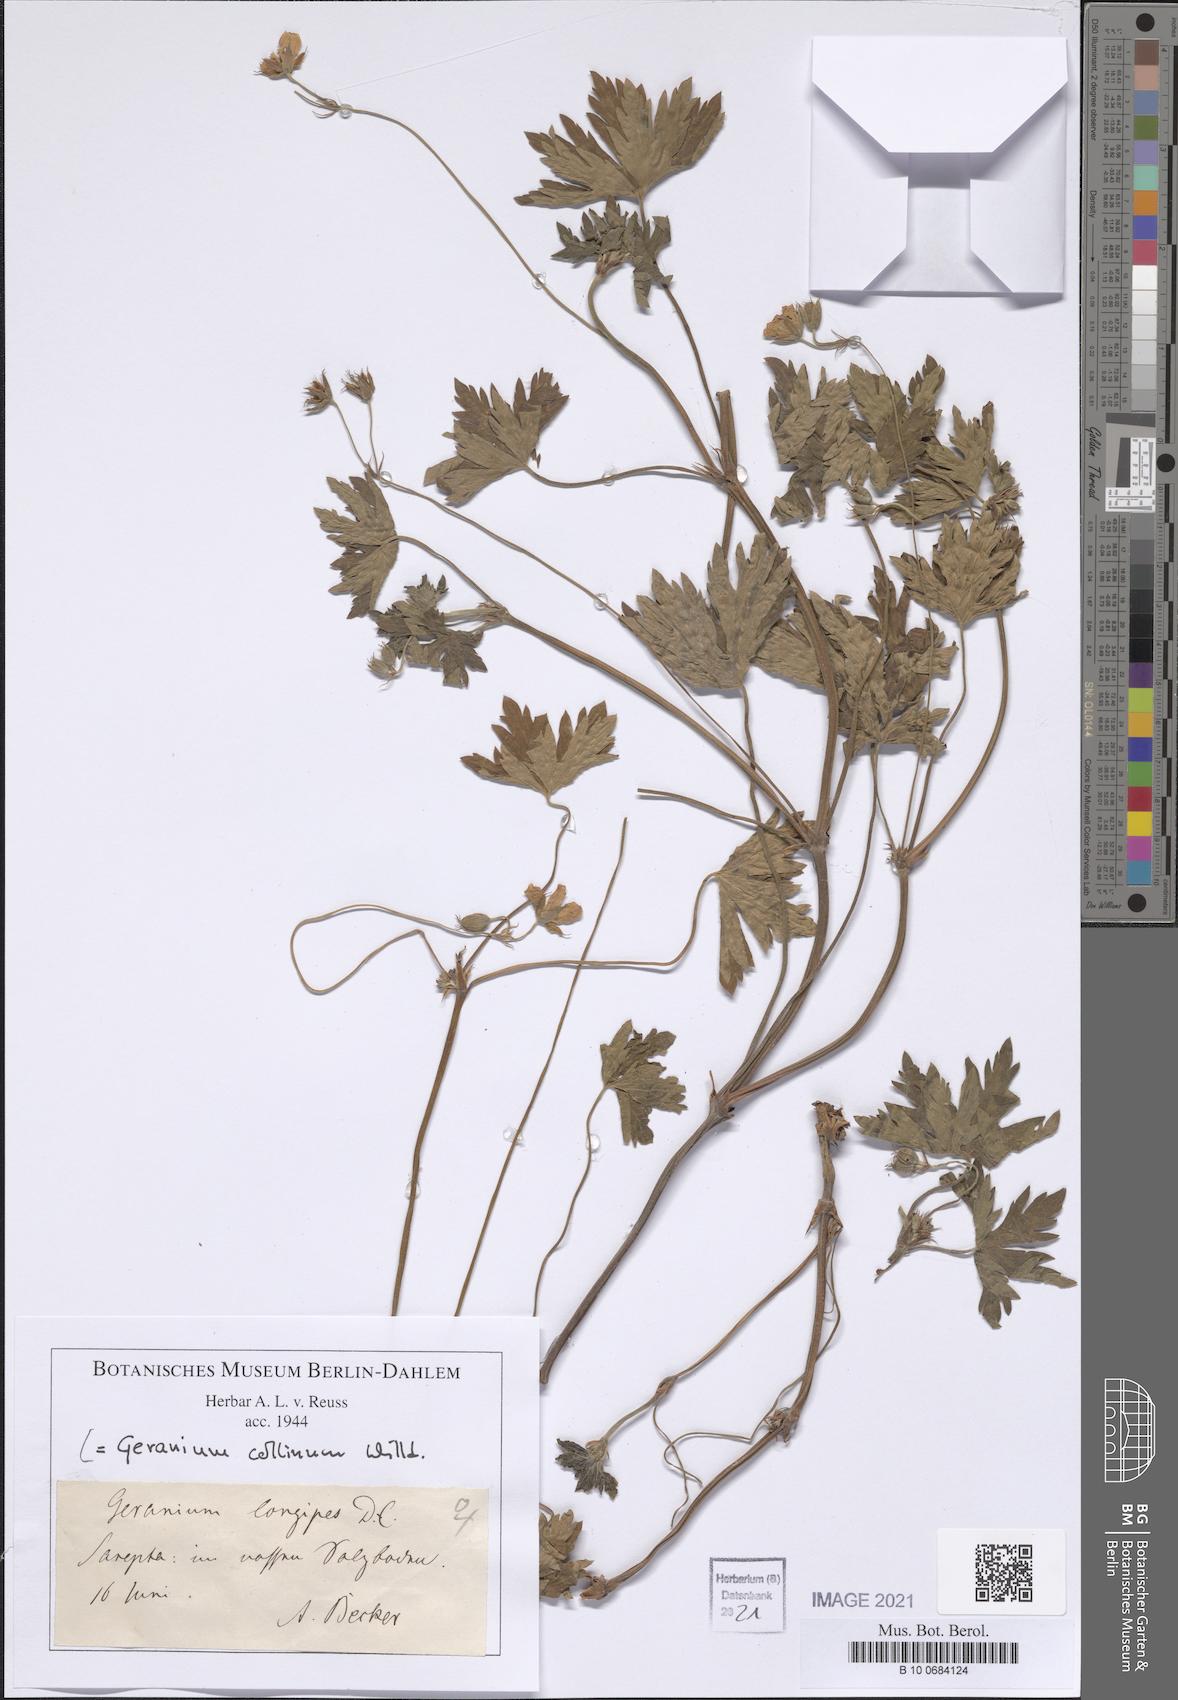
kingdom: Plantae
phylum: Tracheophyta
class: Magnoliopsida
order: Geraniales
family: Geraniaceae
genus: Geranium
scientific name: Geranium collinum
